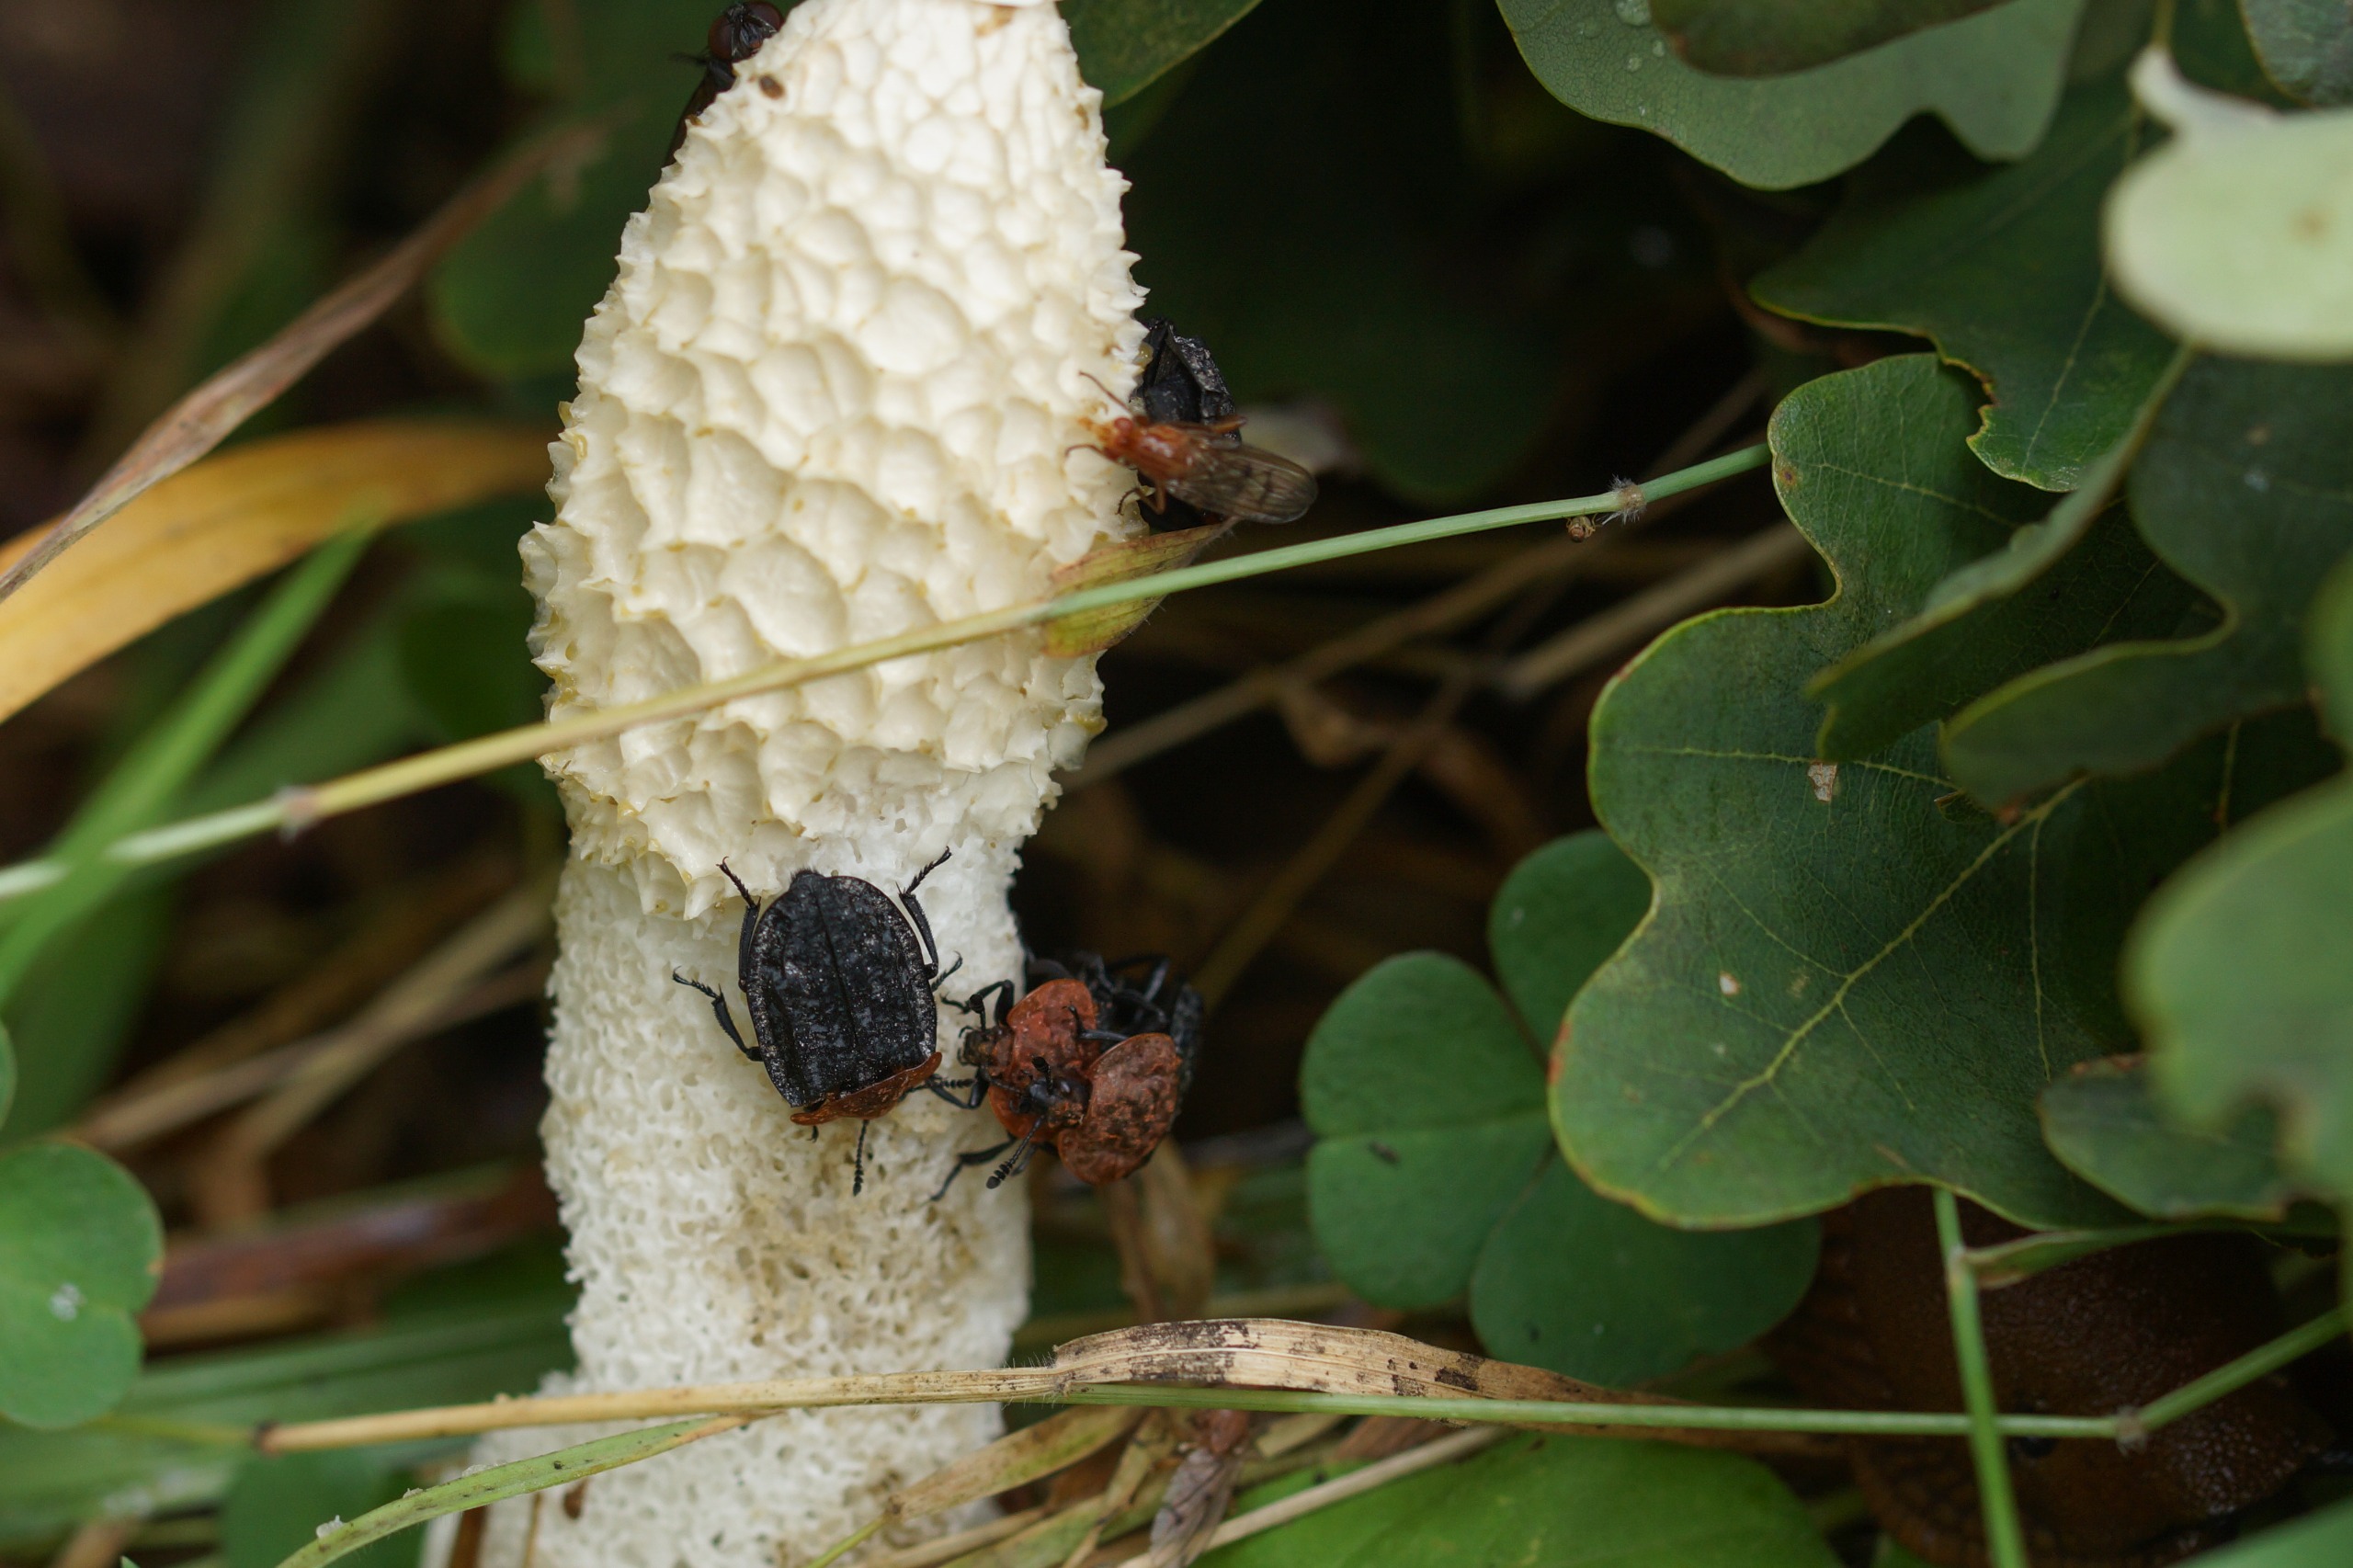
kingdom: Animalia
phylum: Arthropoda
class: Insecta
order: Coleoptera
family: Staphylinidae
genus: Oiceoptoma
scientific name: Oiceoptoma thoracicum
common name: Rødbrystet ådselbille
